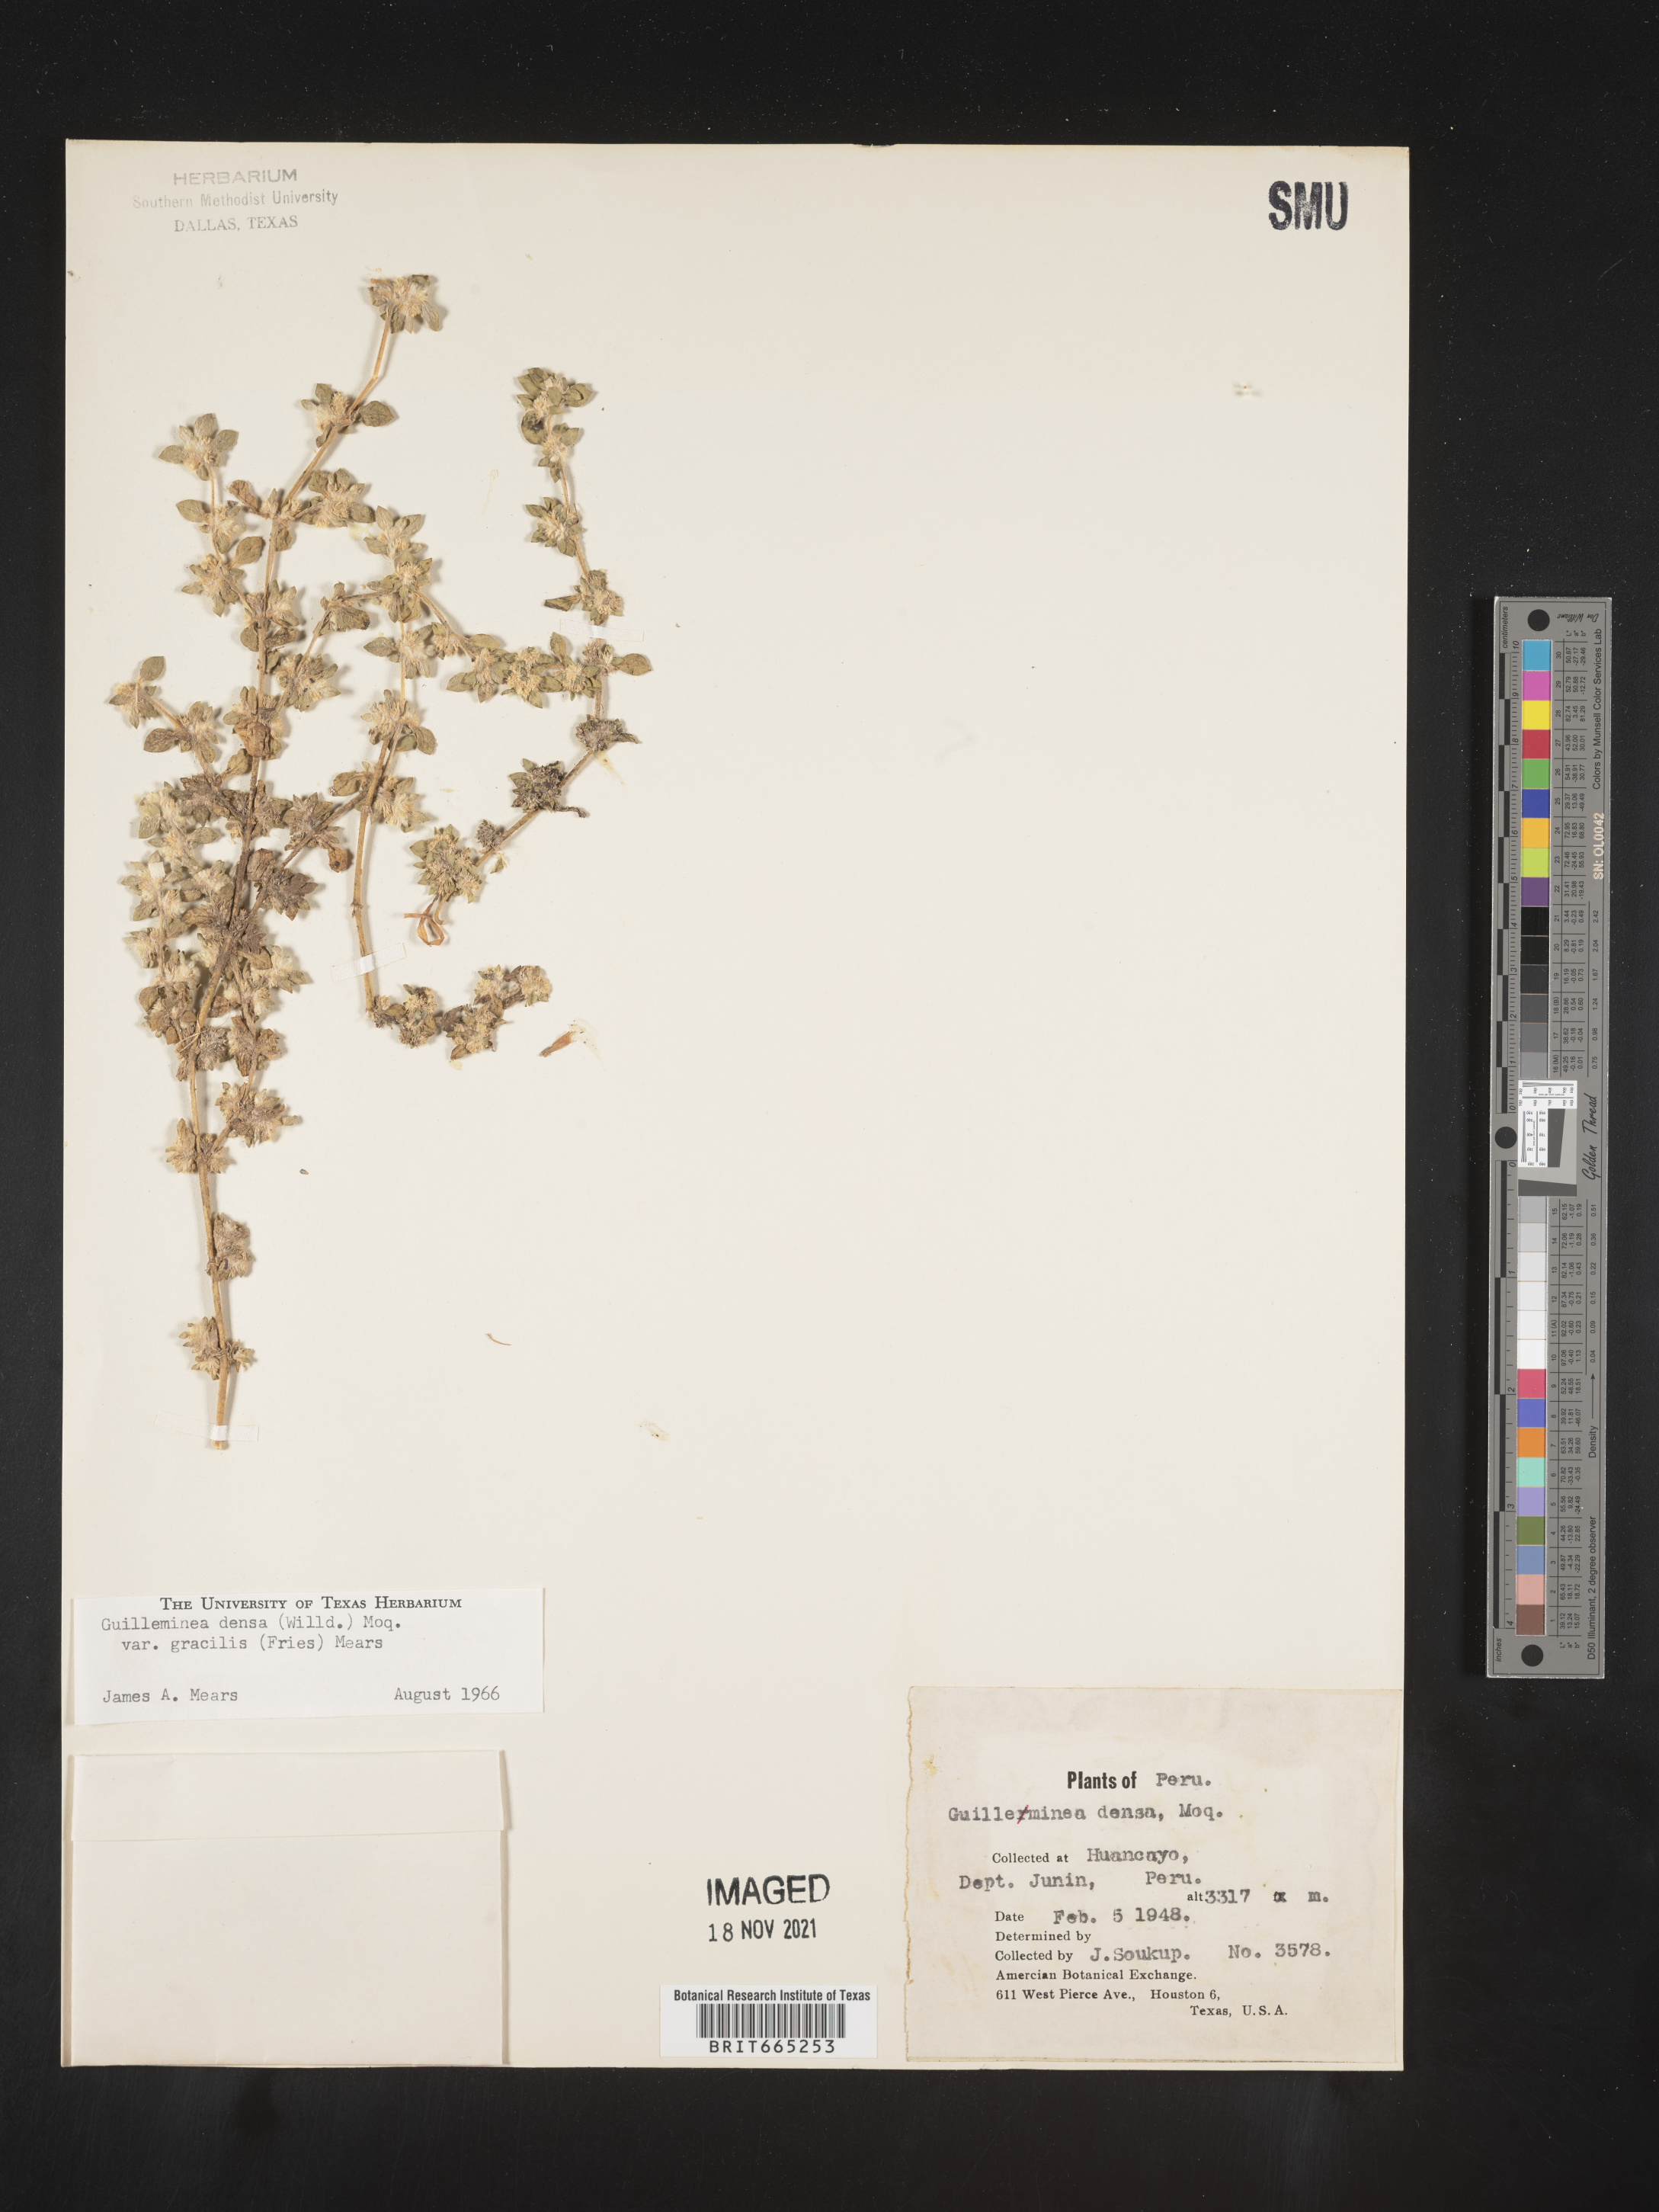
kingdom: Plantae
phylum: Tracheophyta
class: Magnoliopsida
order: Caryophyllales
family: Amaranthaceae
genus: Guilleminea
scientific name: Guilleminea
